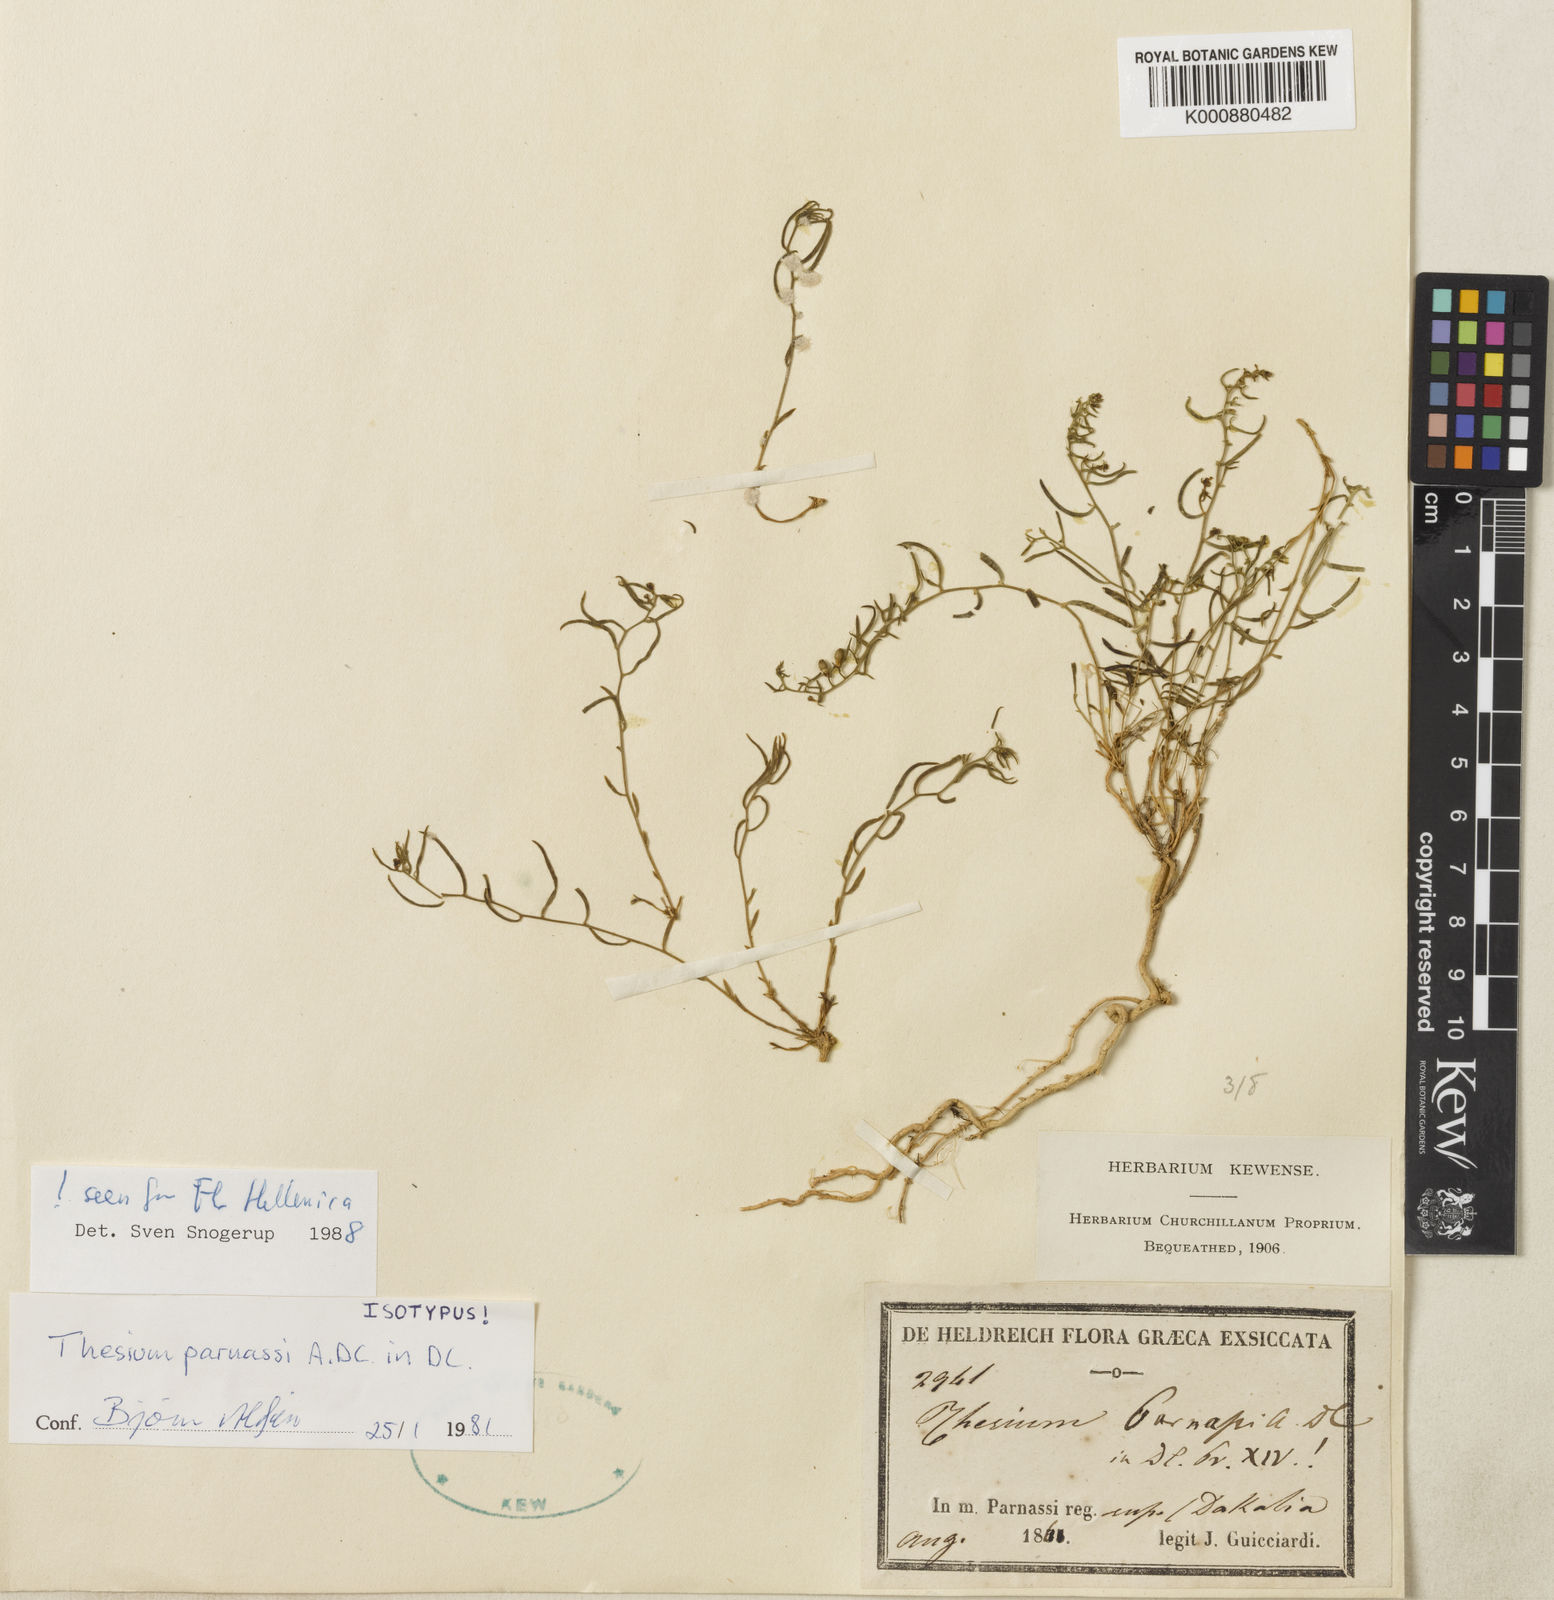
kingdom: Plantae
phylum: Tracheophyta
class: Magnoliopsida
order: Santalales
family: Thesiaceae
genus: Thesium
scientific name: Thesium parnassi
